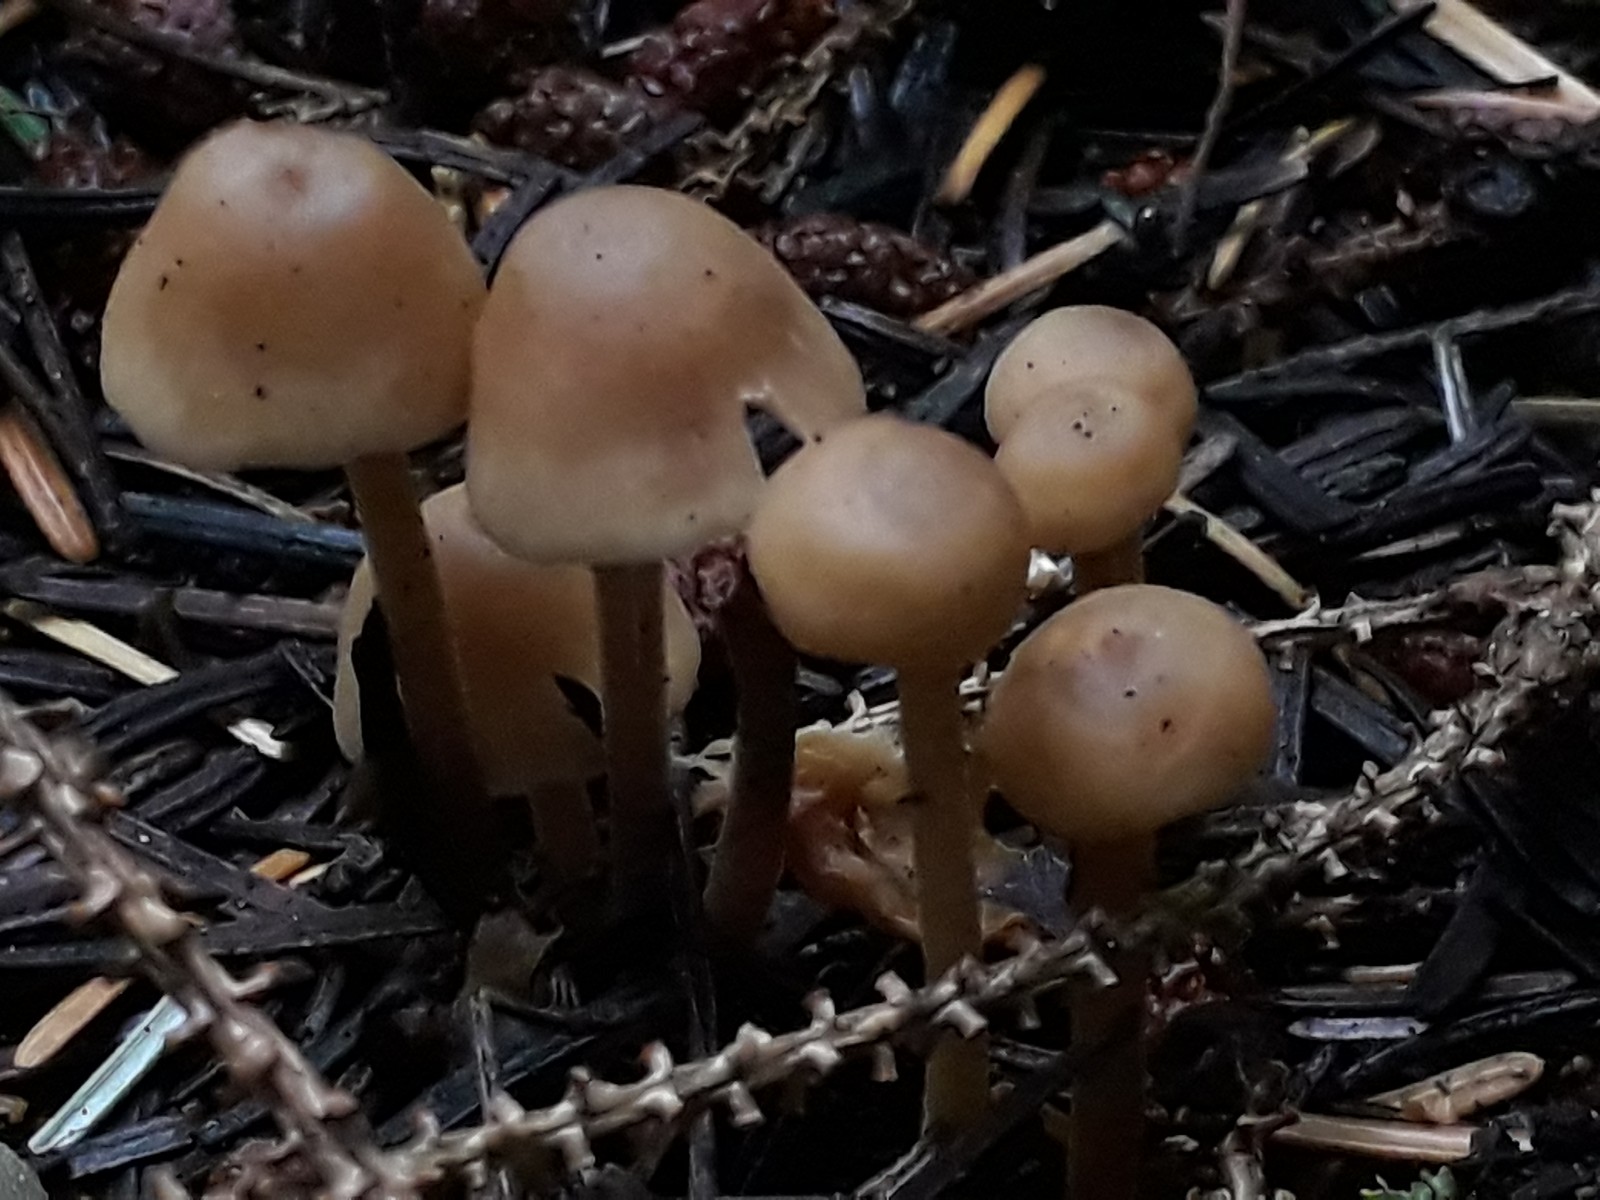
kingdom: Fungi
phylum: Basidiomycota
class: Agaricomycetes
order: Agaricales
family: Omphalotaceae
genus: Collybiopsis
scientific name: Collybiopsis confluens
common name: knippe-fladhat
